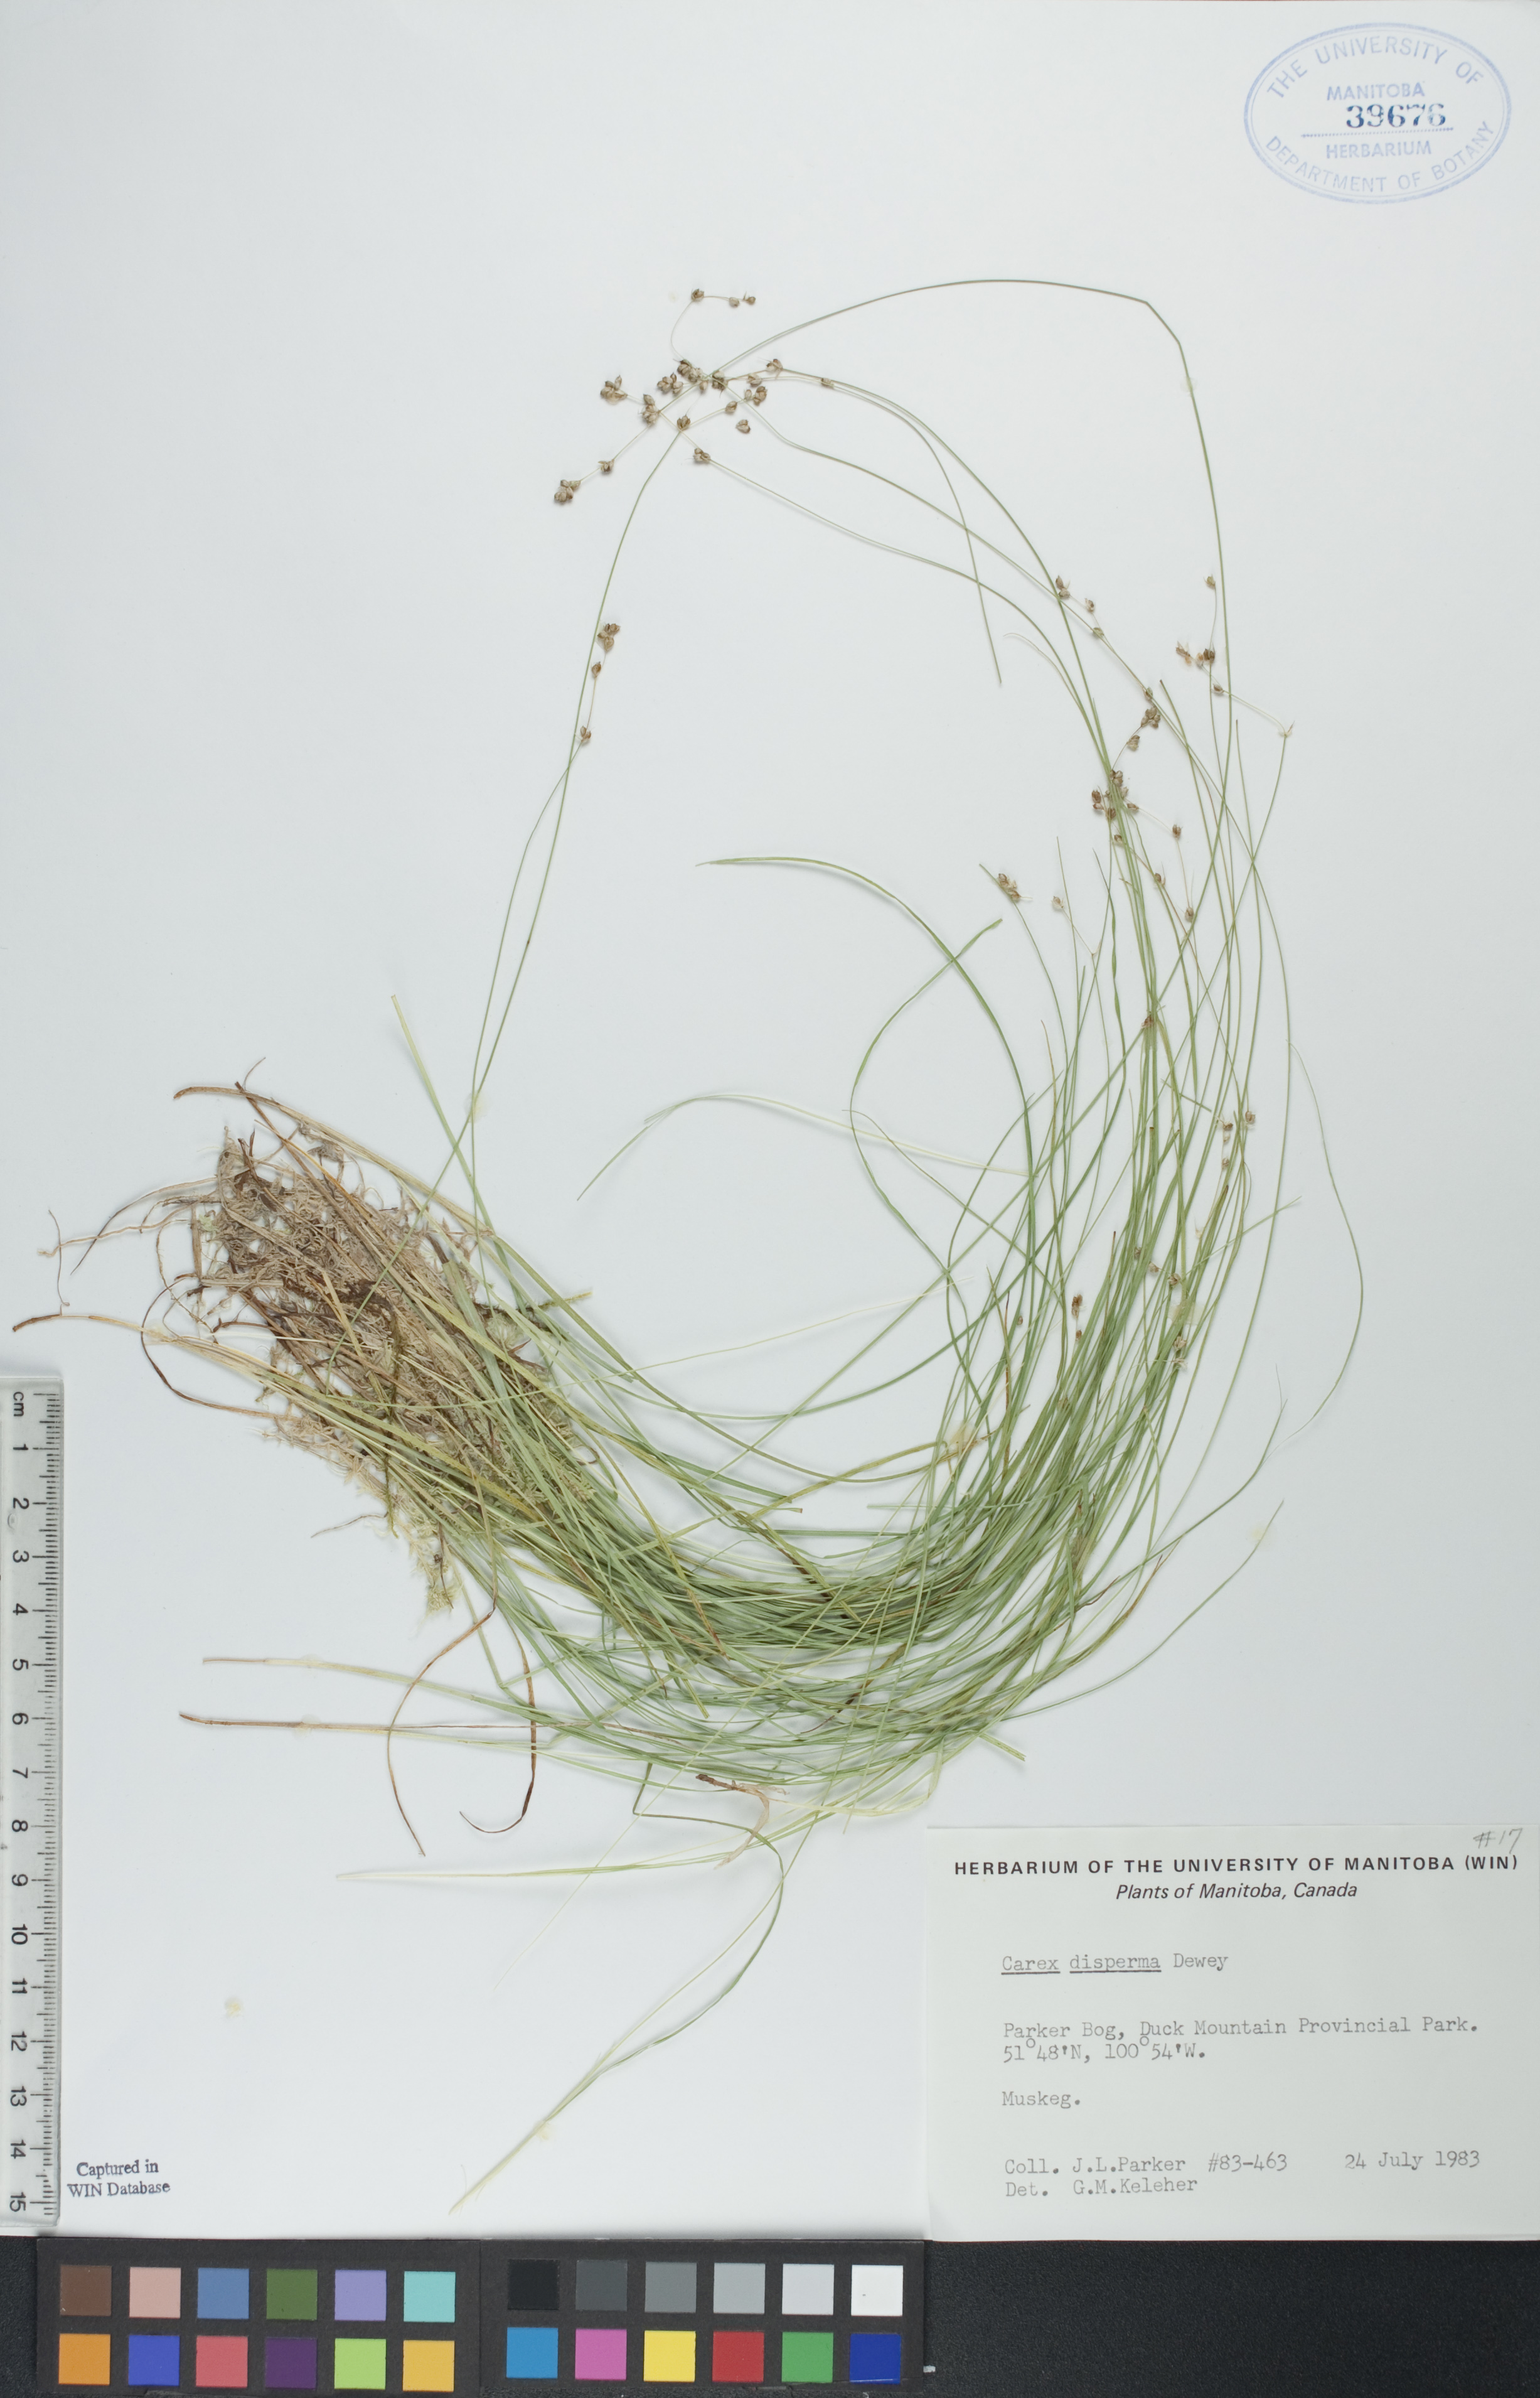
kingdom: Plantae
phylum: Tracheophyta
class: Liliopsida
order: Poales
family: Cyperaceae
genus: Carex
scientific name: Carex disperma
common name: Short-leaved sedge
